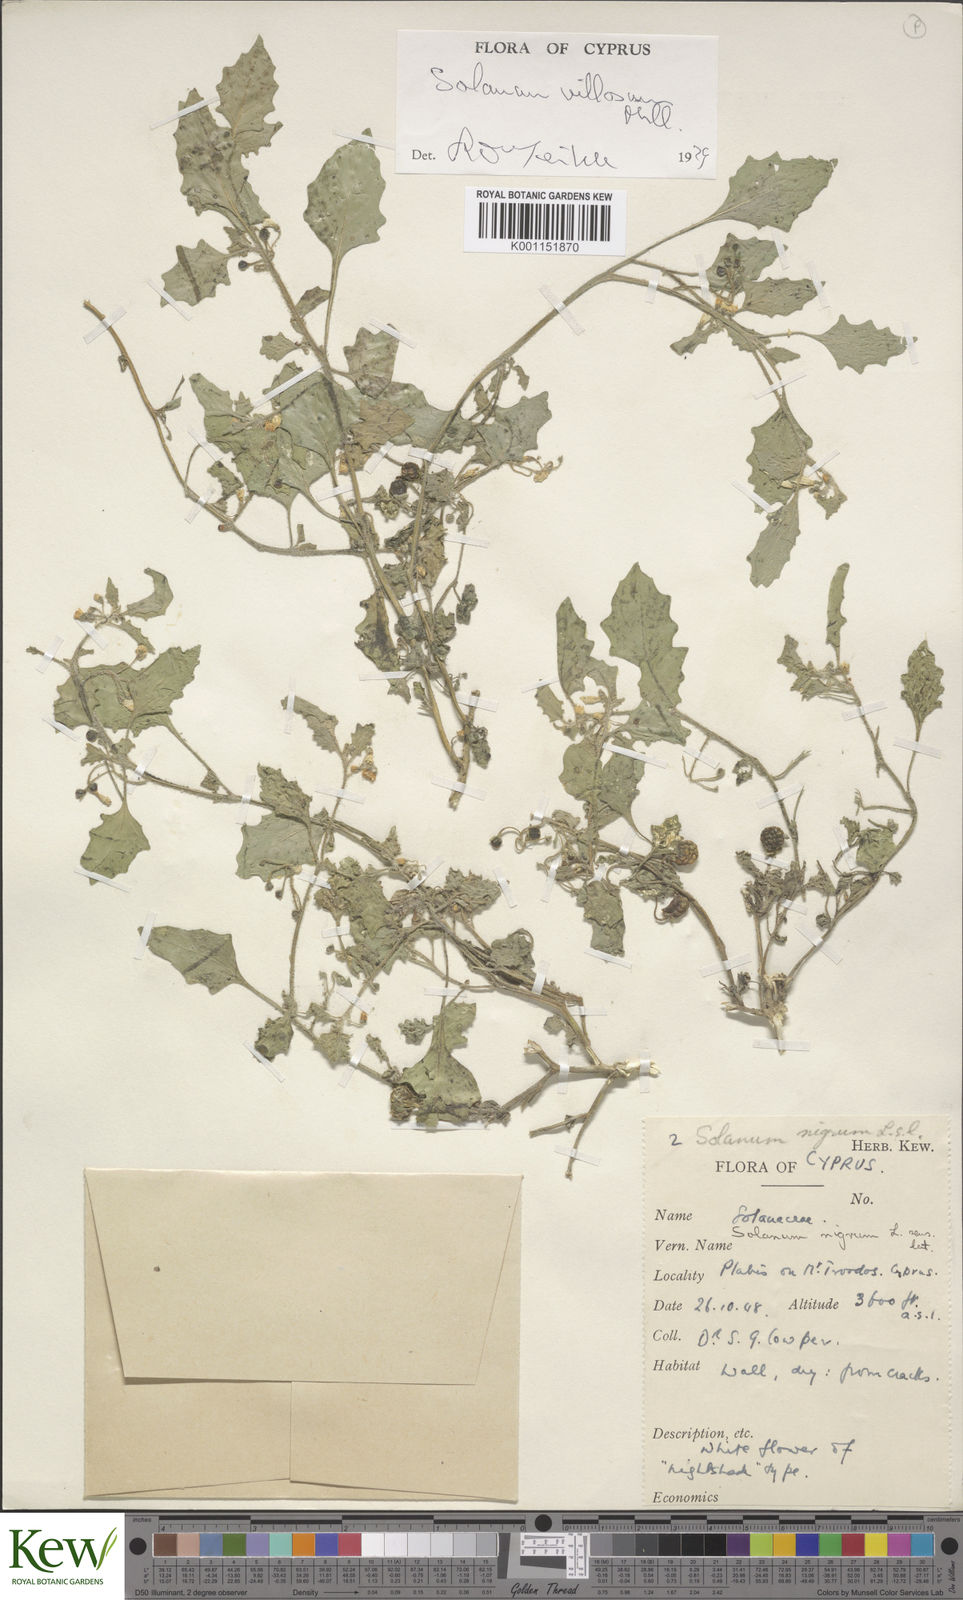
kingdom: Plantae
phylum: Tracheophyta
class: Magnoliopsida
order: Solanales
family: Solanaceae
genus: Solanum
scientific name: Solanum villosum
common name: Red nightshade
